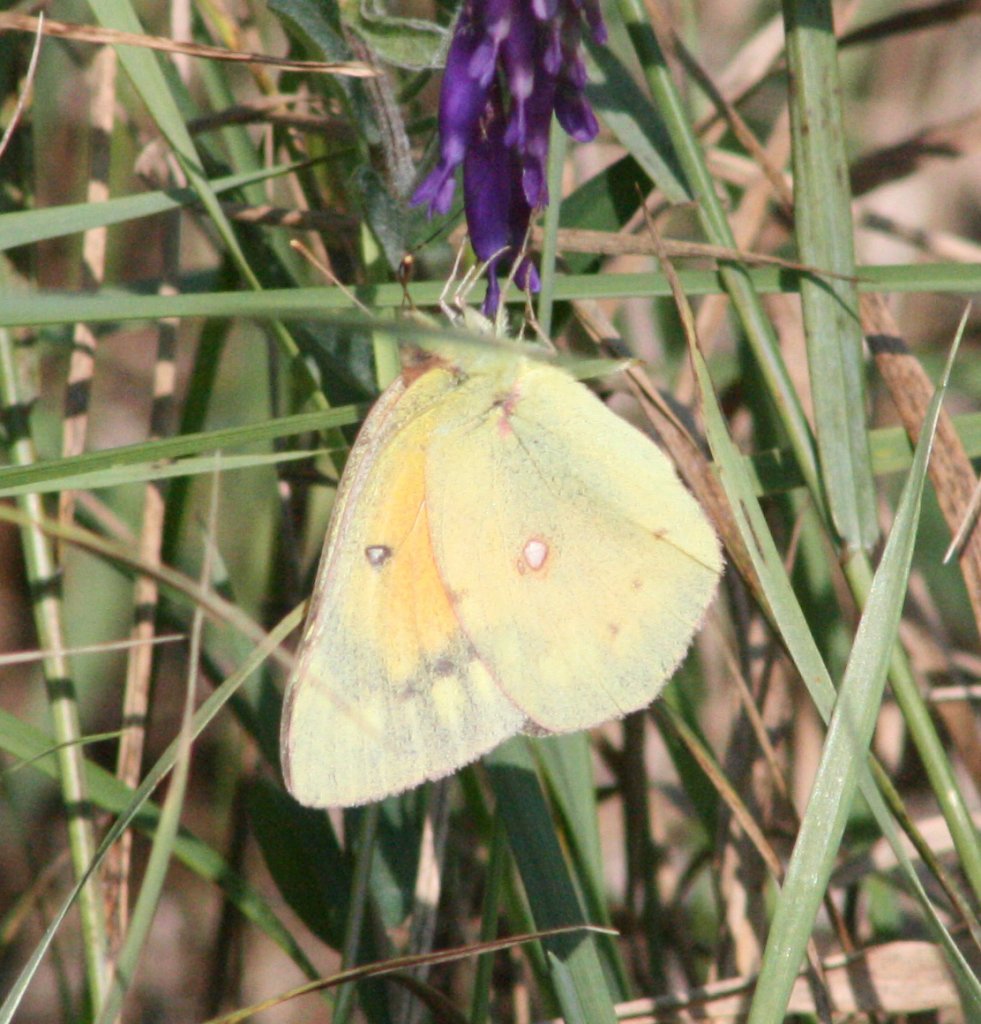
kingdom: Animalia
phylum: Arthropoda
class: Insecta
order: Lepidoptera
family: Pieridae
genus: Colias
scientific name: Colias eurytheme
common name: Orange Sulphur
